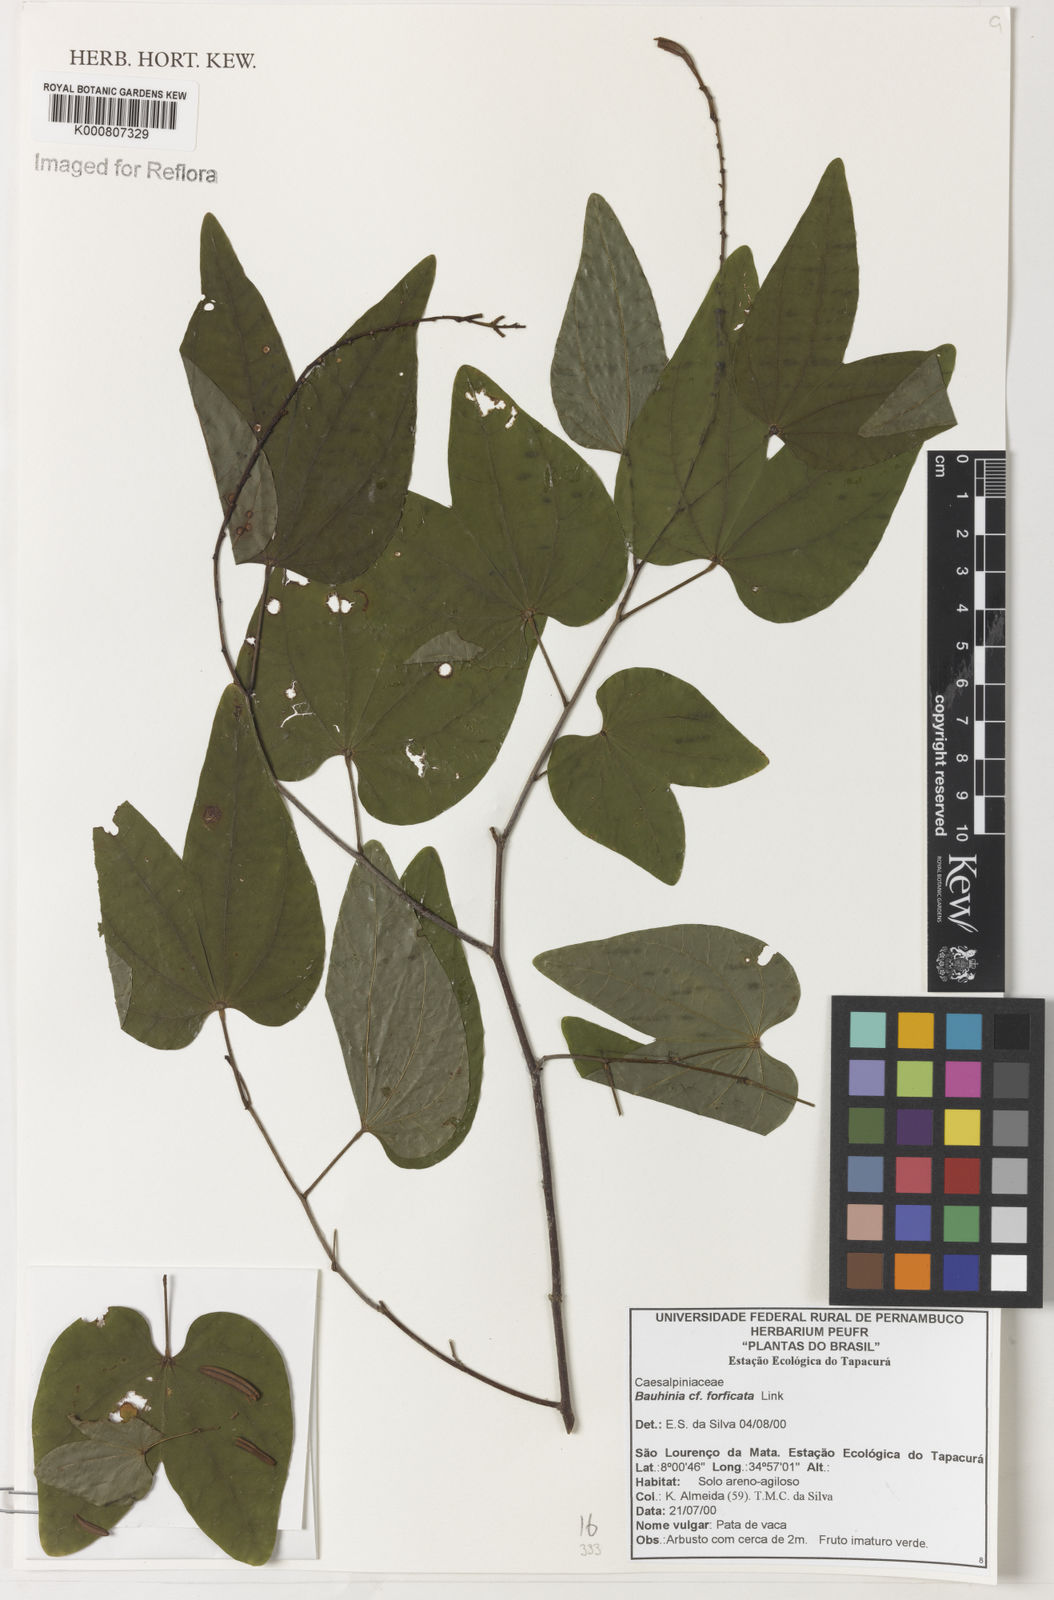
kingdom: Plantae
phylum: Tracheophyta
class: Magnoliopsida
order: Fabales
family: Fabaceae
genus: Bauhinia
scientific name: Bauhinia forficata
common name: Orchid tree
